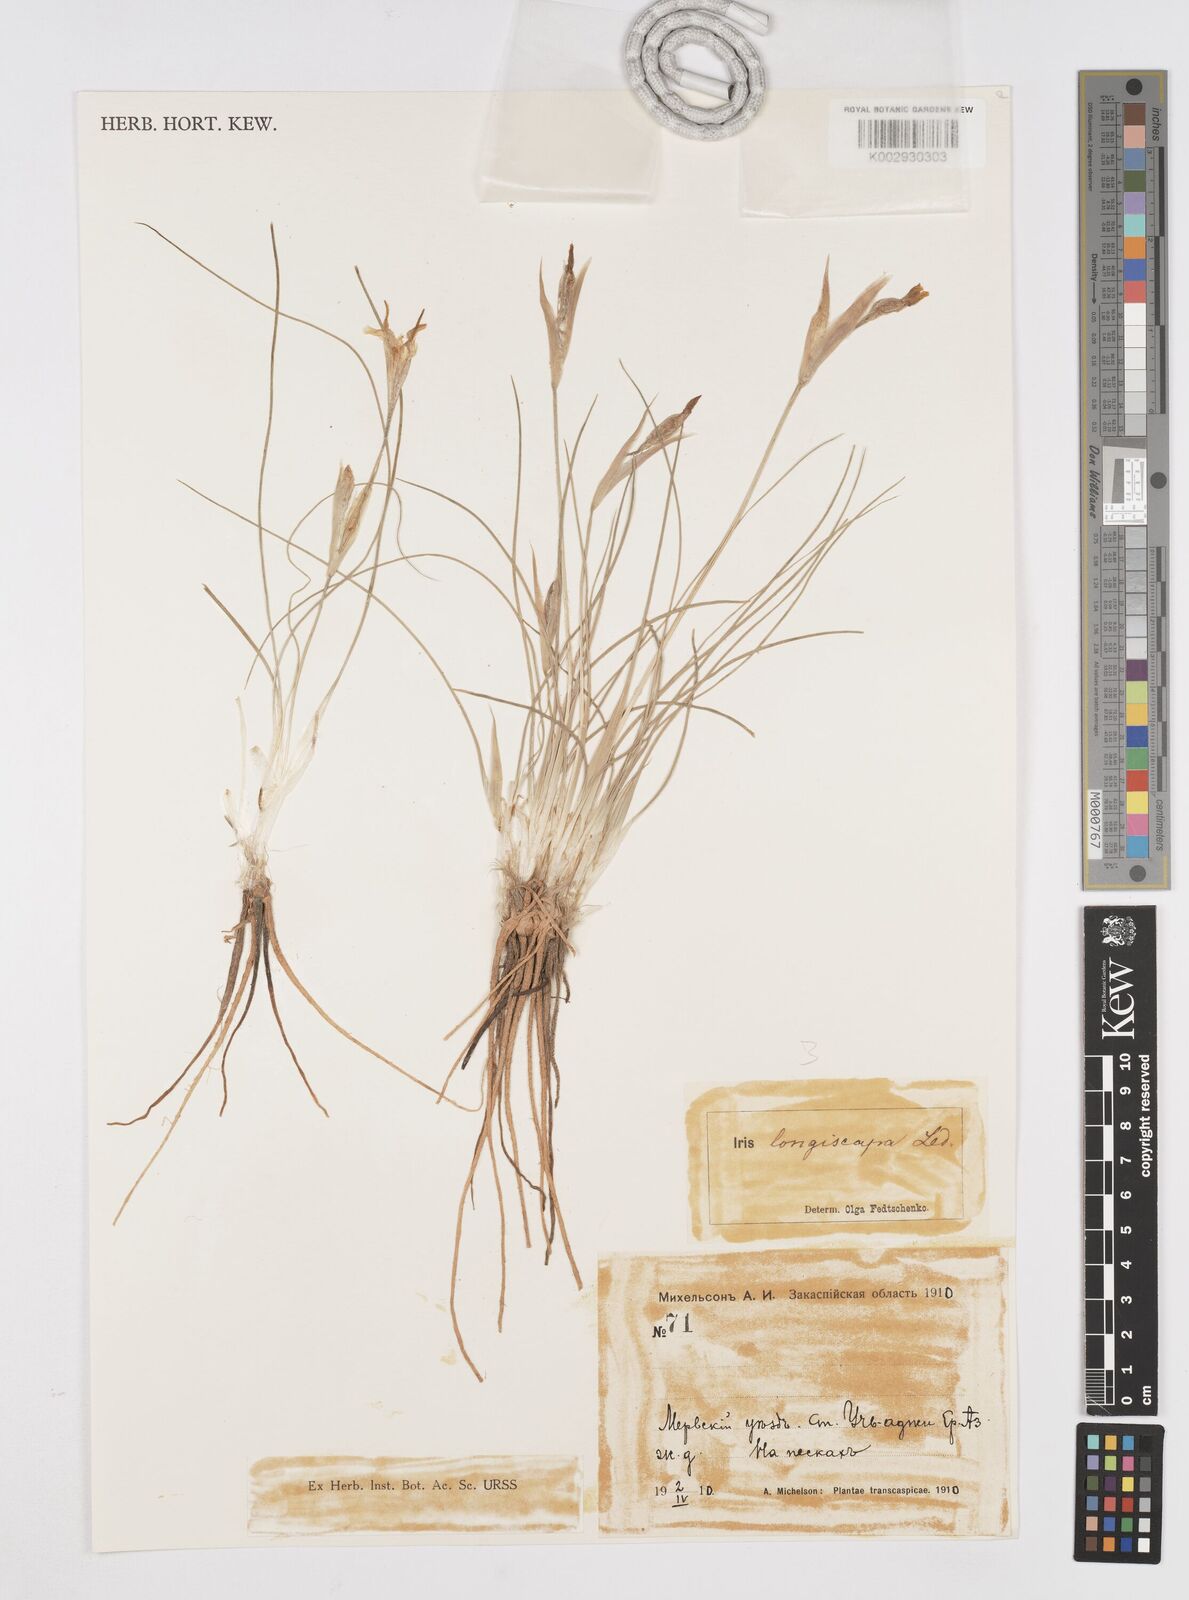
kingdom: Plantae
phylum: Tracheophyta
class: Liliopsida
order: Asparagales
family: Iridaceae
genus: Iris
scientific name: Iris longiscapa
